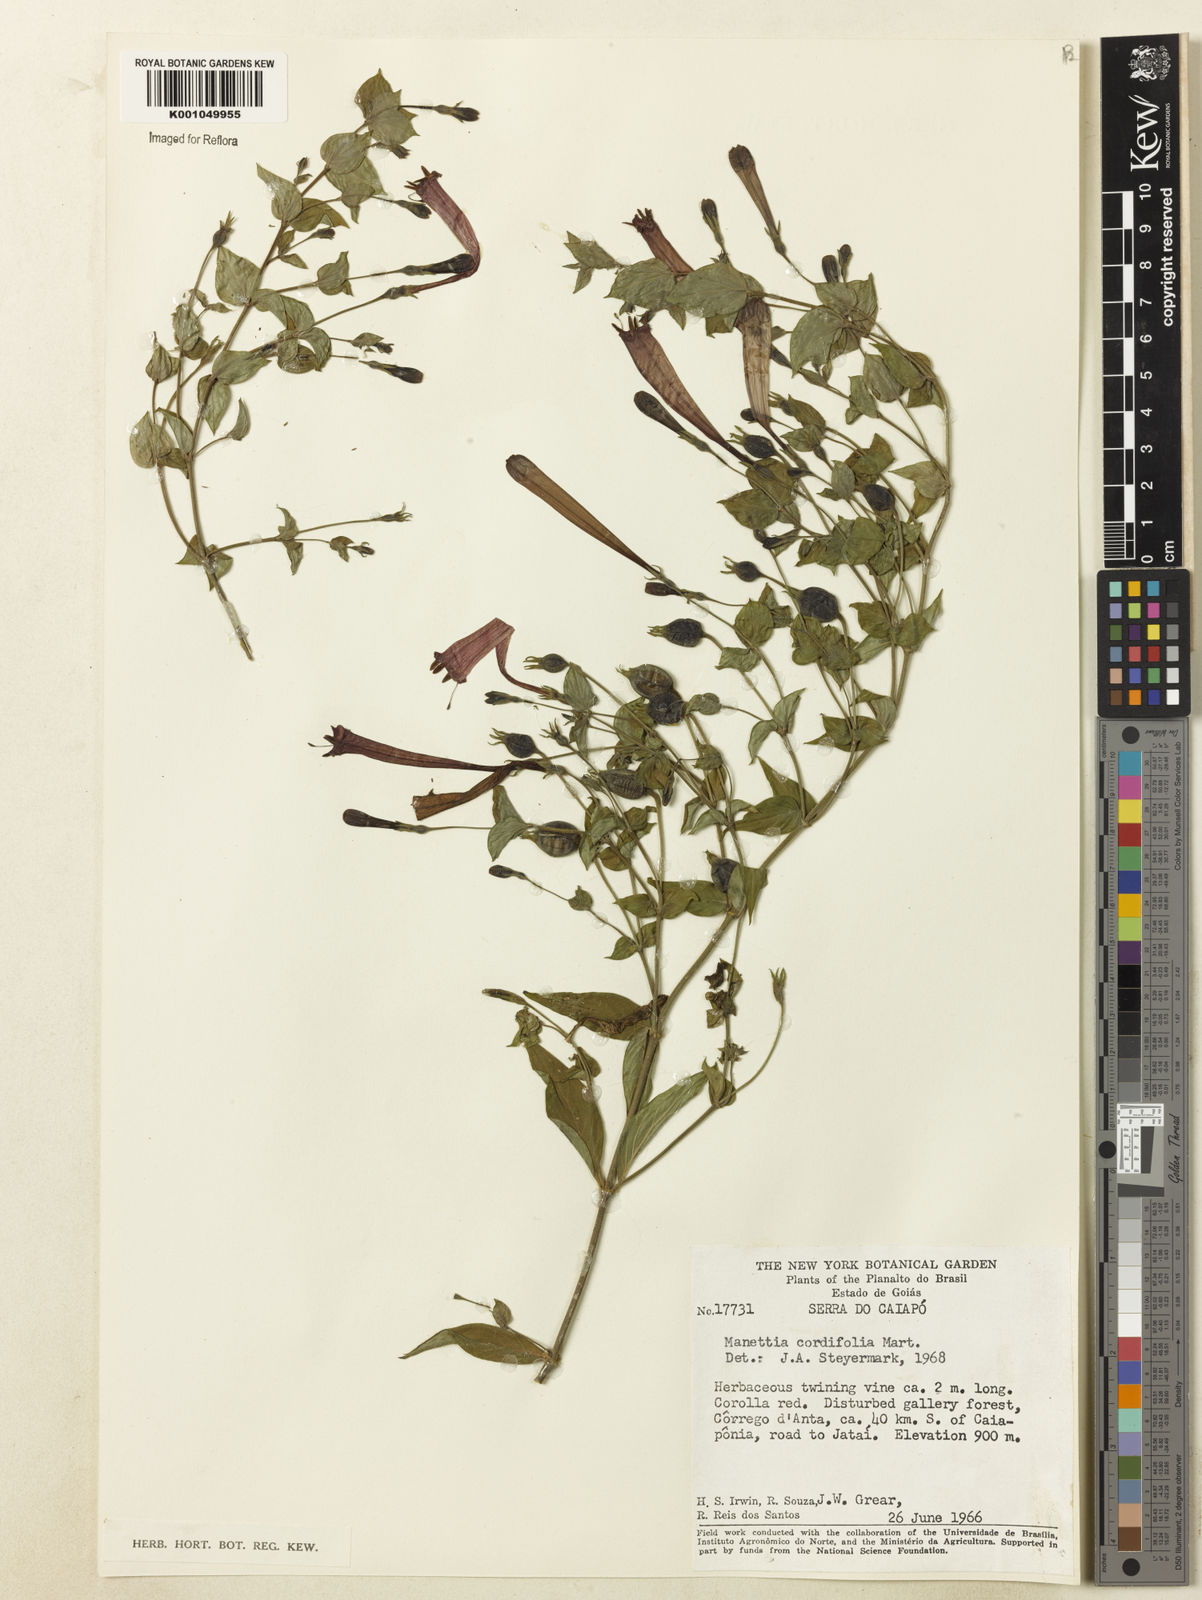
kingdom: Plantae
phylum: Tracheophyta
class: Magnoliopsida
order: Gentianales
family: Rubiaceae
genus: Manettia
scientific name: Manettia cordifolia
